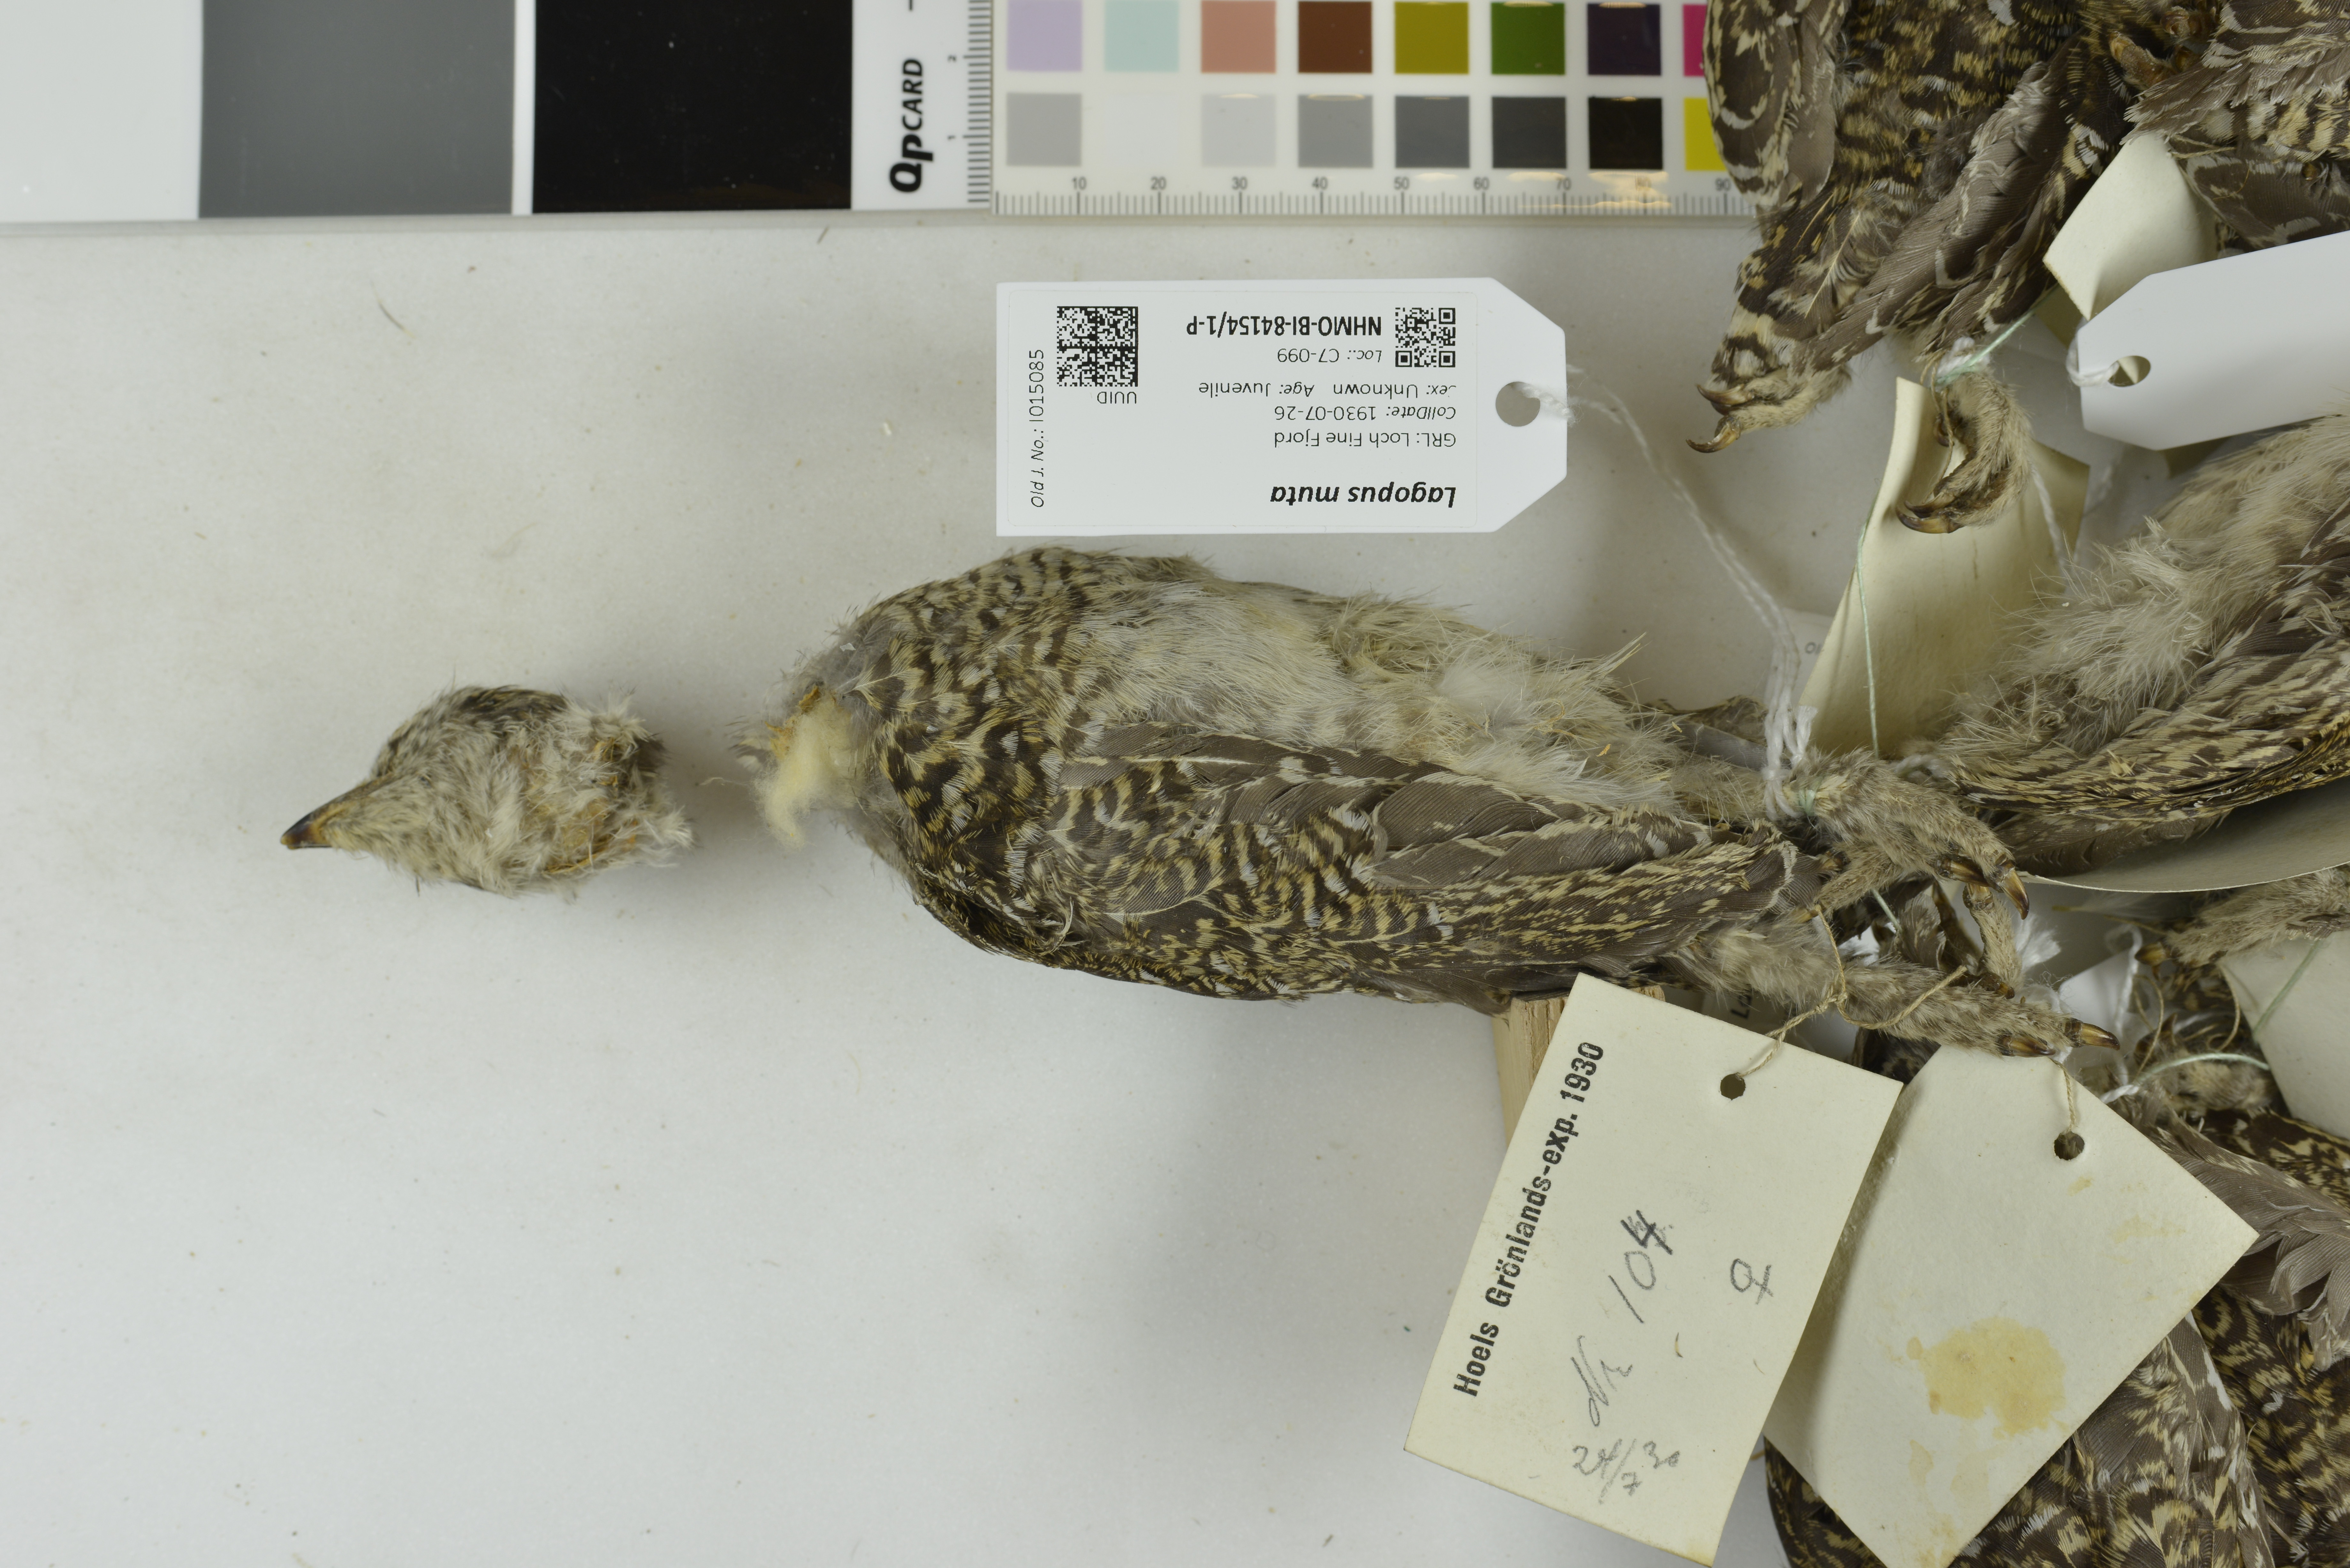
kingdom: Animalia
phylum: Chordata
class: Aves
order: Galliformes
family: Phasianidae
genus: Lagopus
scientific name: Lagopus muta
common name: Rock ptarmigan
